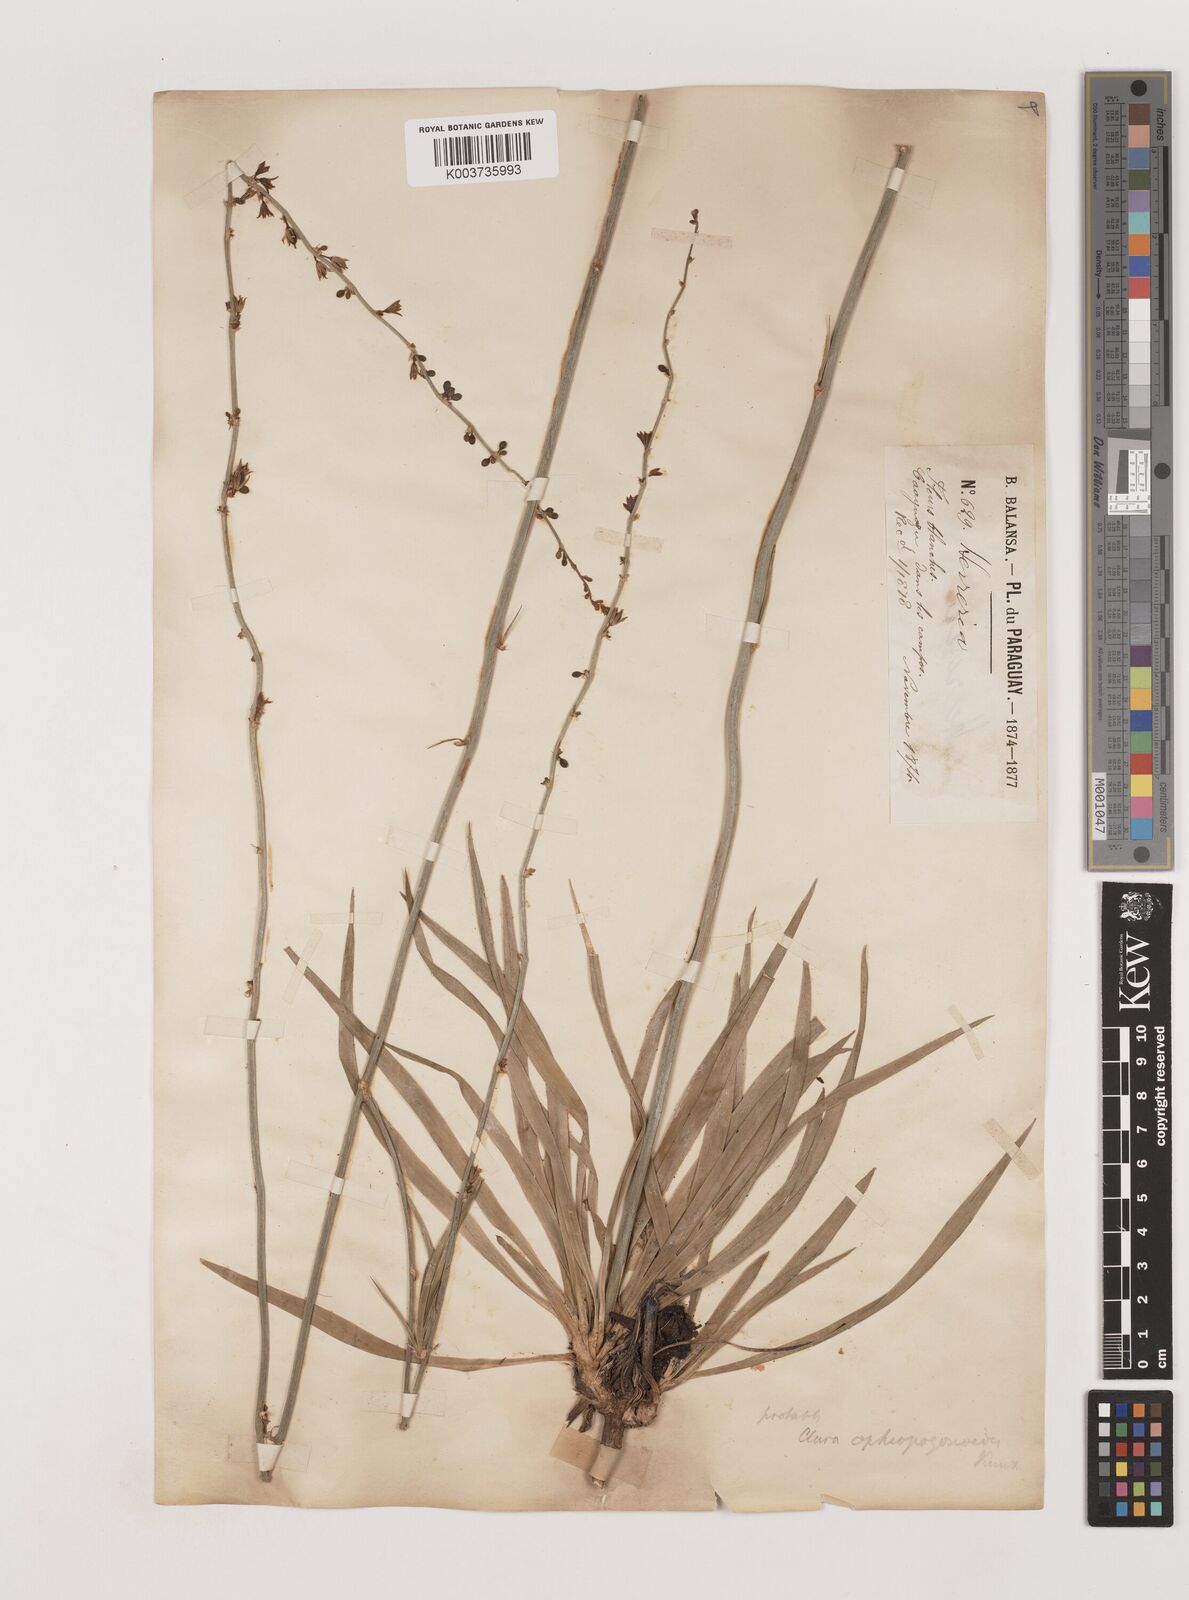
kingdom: Plantae
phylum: Tracheophyta
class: Liliopsida
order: Asparagales
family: Asparagaceae
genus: Clara
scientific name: Clara ophiopogonoides
